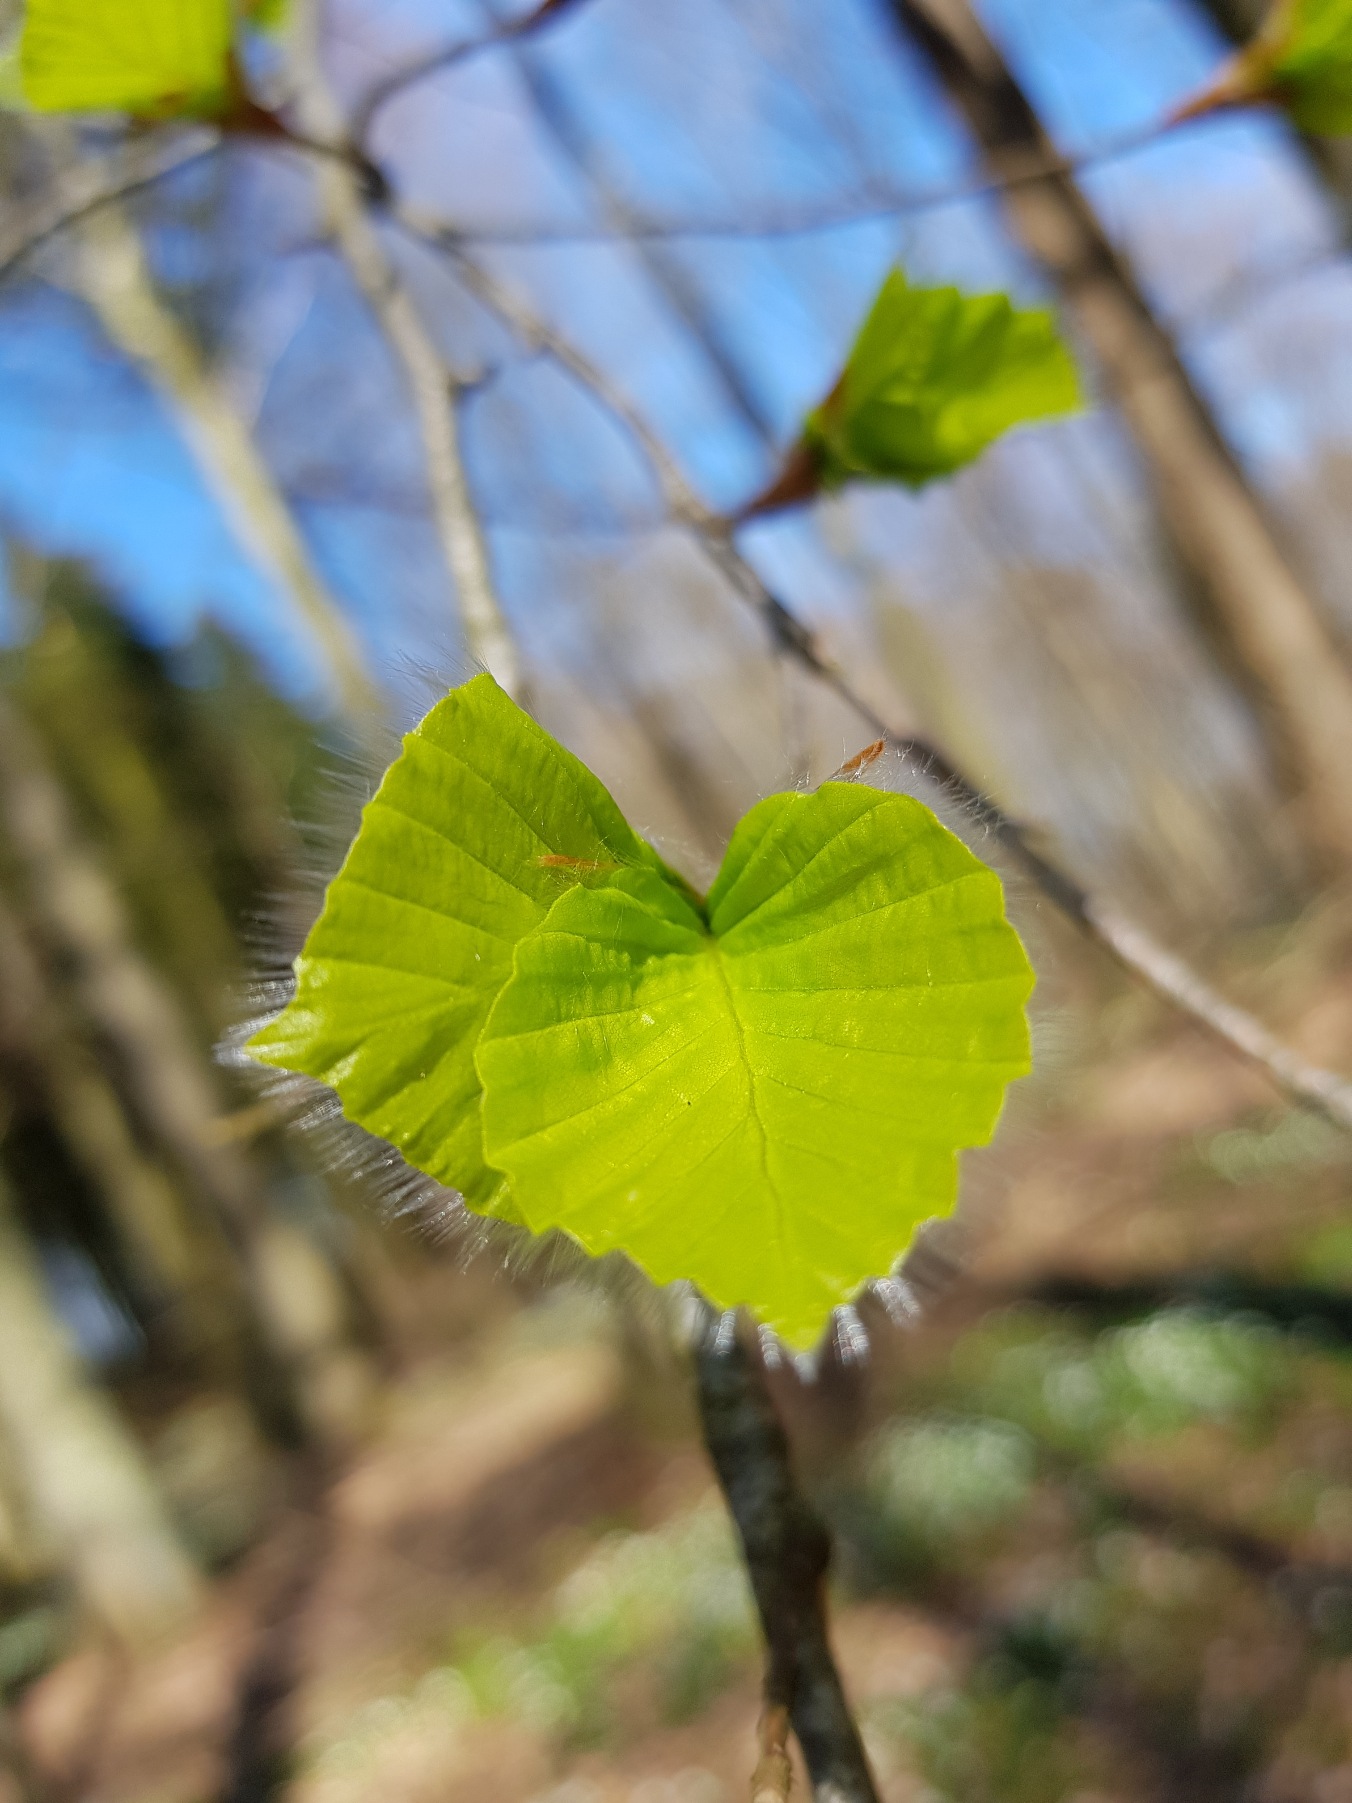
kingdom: Plantae
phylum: Tracheophyta
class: Magnoliopsida
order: Fagales
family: Fagaceae
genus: Fagus
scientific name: Fagus sylvatica
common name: Bøg
